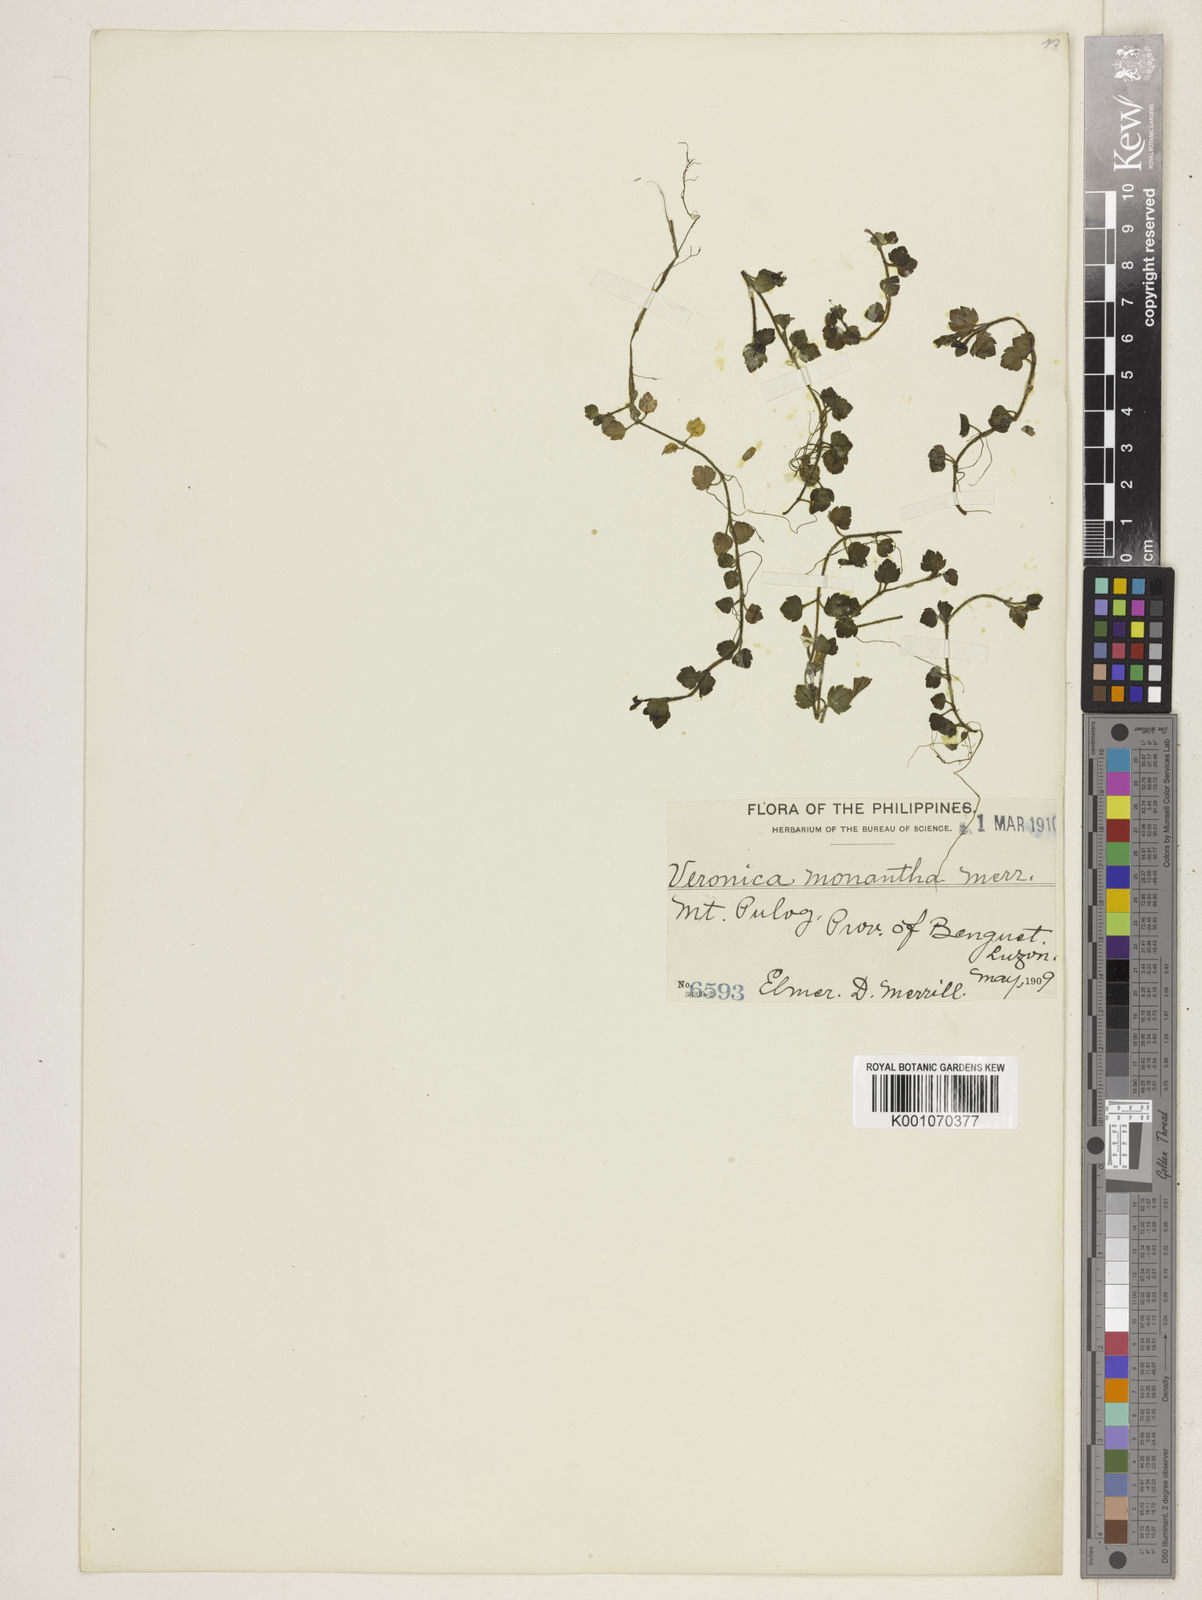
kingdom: Plantae
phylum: Tracheophyta
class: Magnoliopsida
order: Lamiales
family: Plantaginaceae
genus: Veronica
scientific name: Veronica monantha
